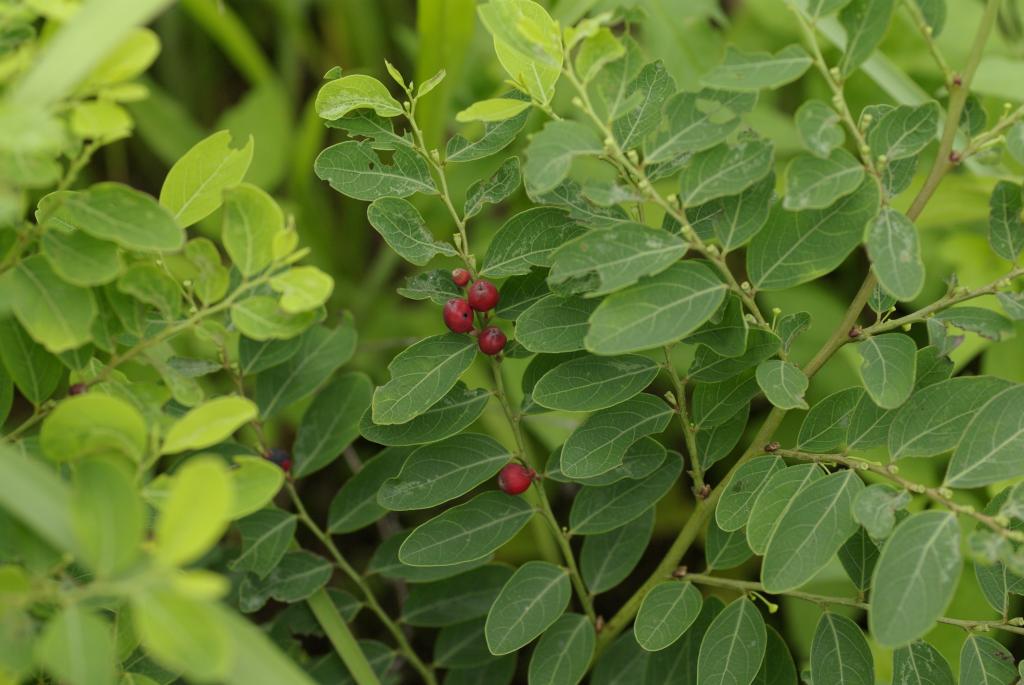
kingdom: Plantae
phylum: Tracheophyta
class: Magnoliopsida
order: Malpighiales
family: Phyllanthaceae
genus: Breynia
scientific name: Breynia officinalis
